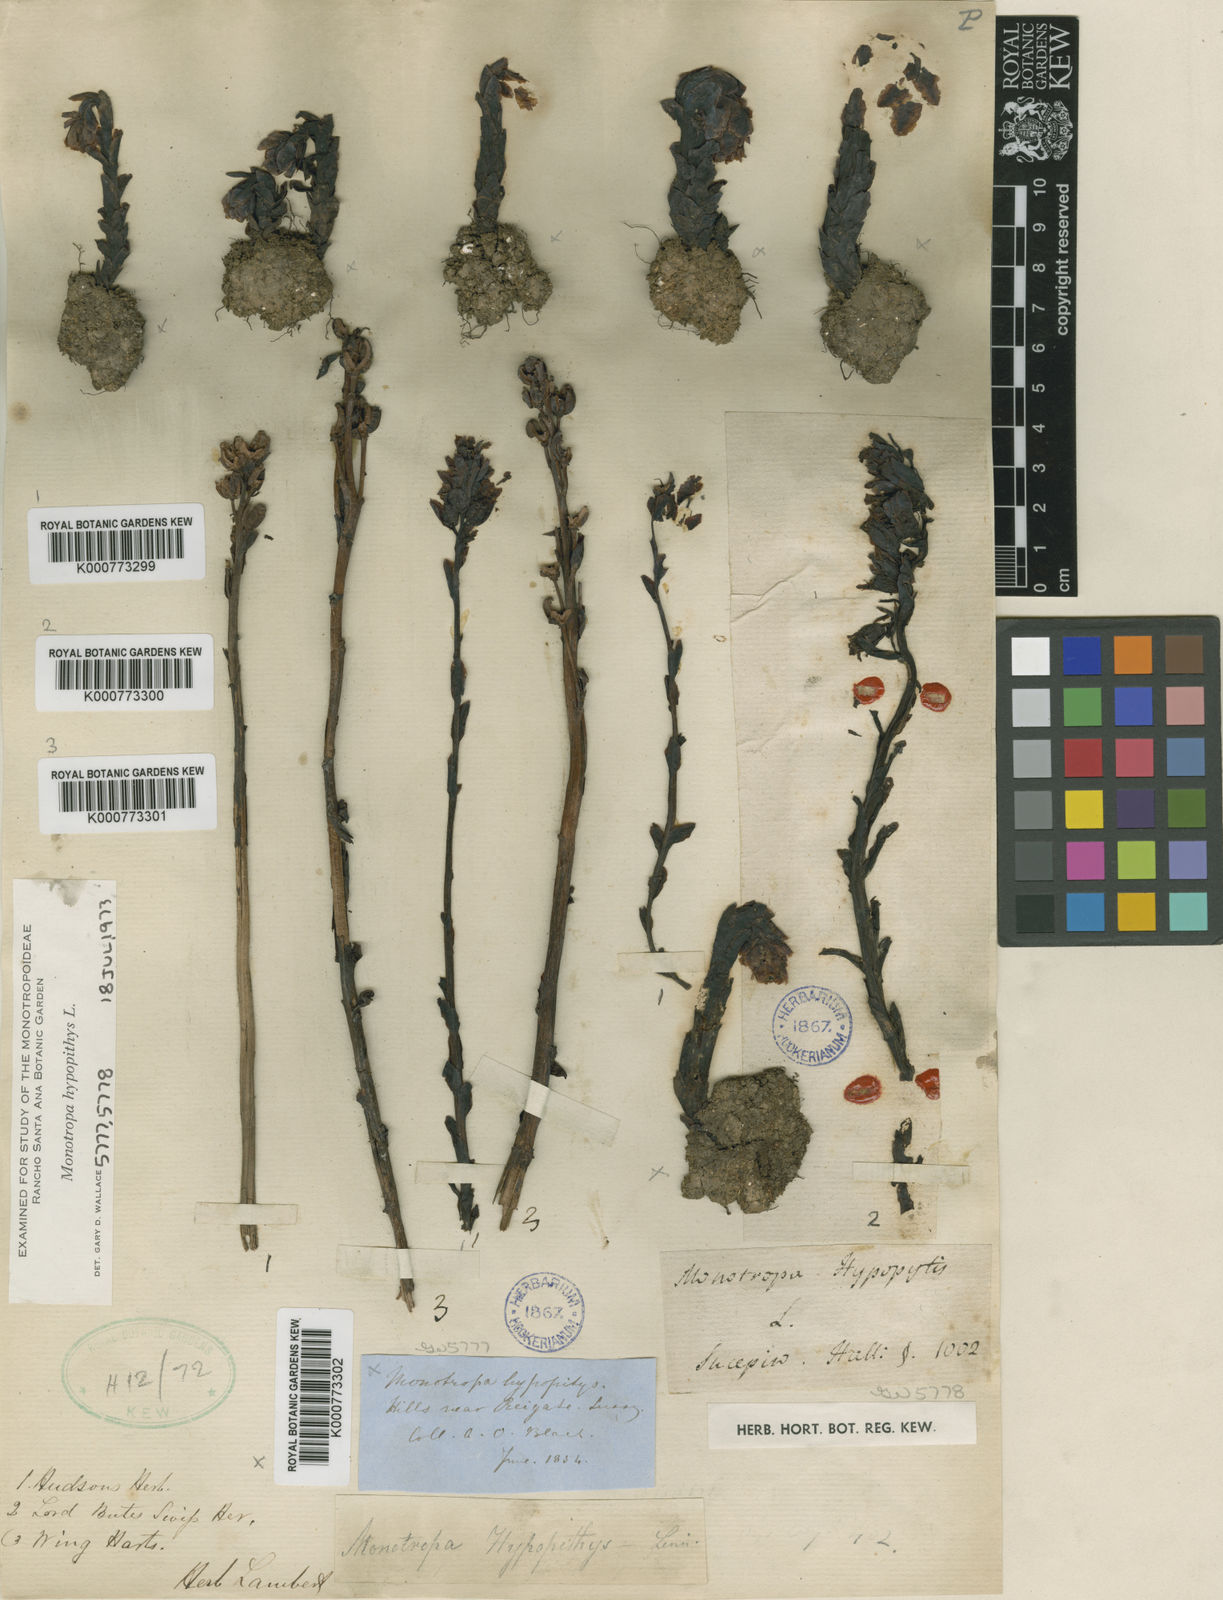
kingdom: Plantae
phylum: Tracheophyta
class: Magnoliopsida
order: Ericales
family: Ericaceae
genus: Monotropa
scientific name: Monotropa
